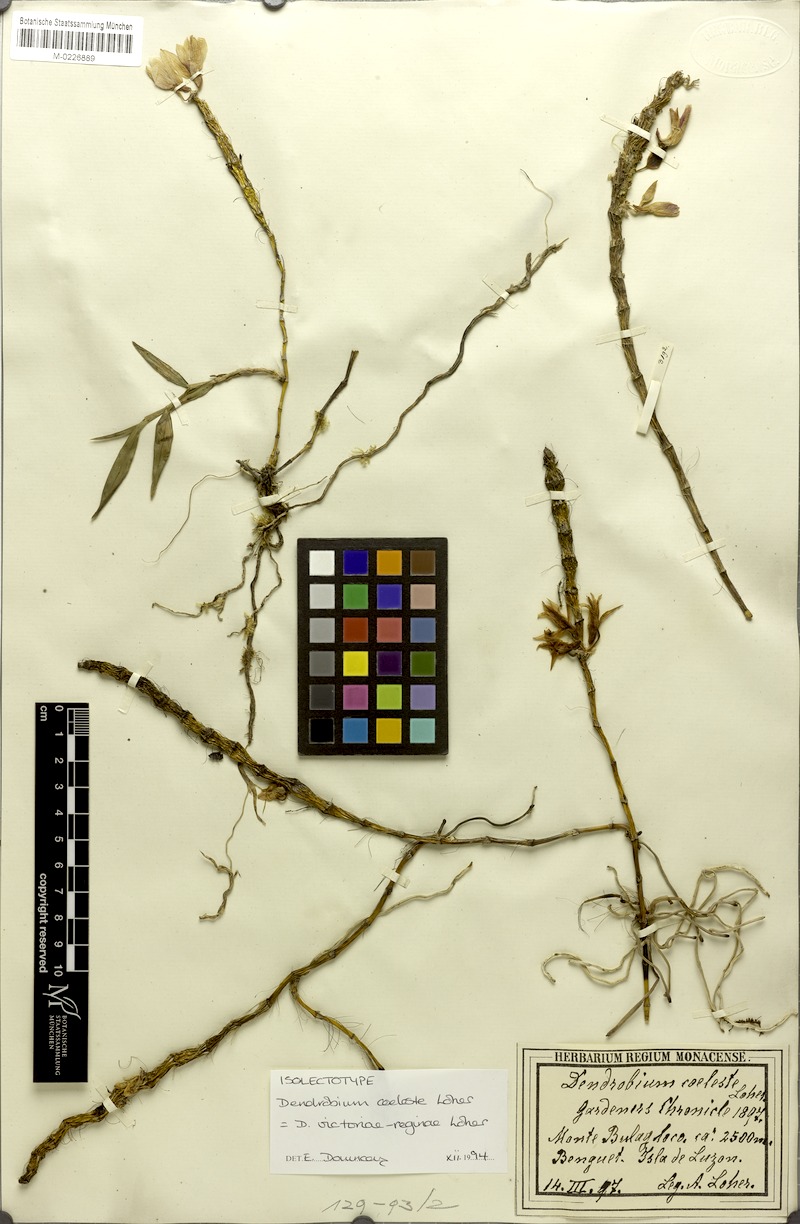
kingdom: Plantae
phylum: Tracheophyta
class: Liliopsida
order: Asparagales
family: Orchidaceae
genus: Dendrobium
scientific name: Dendrobium victoriae-reginae
